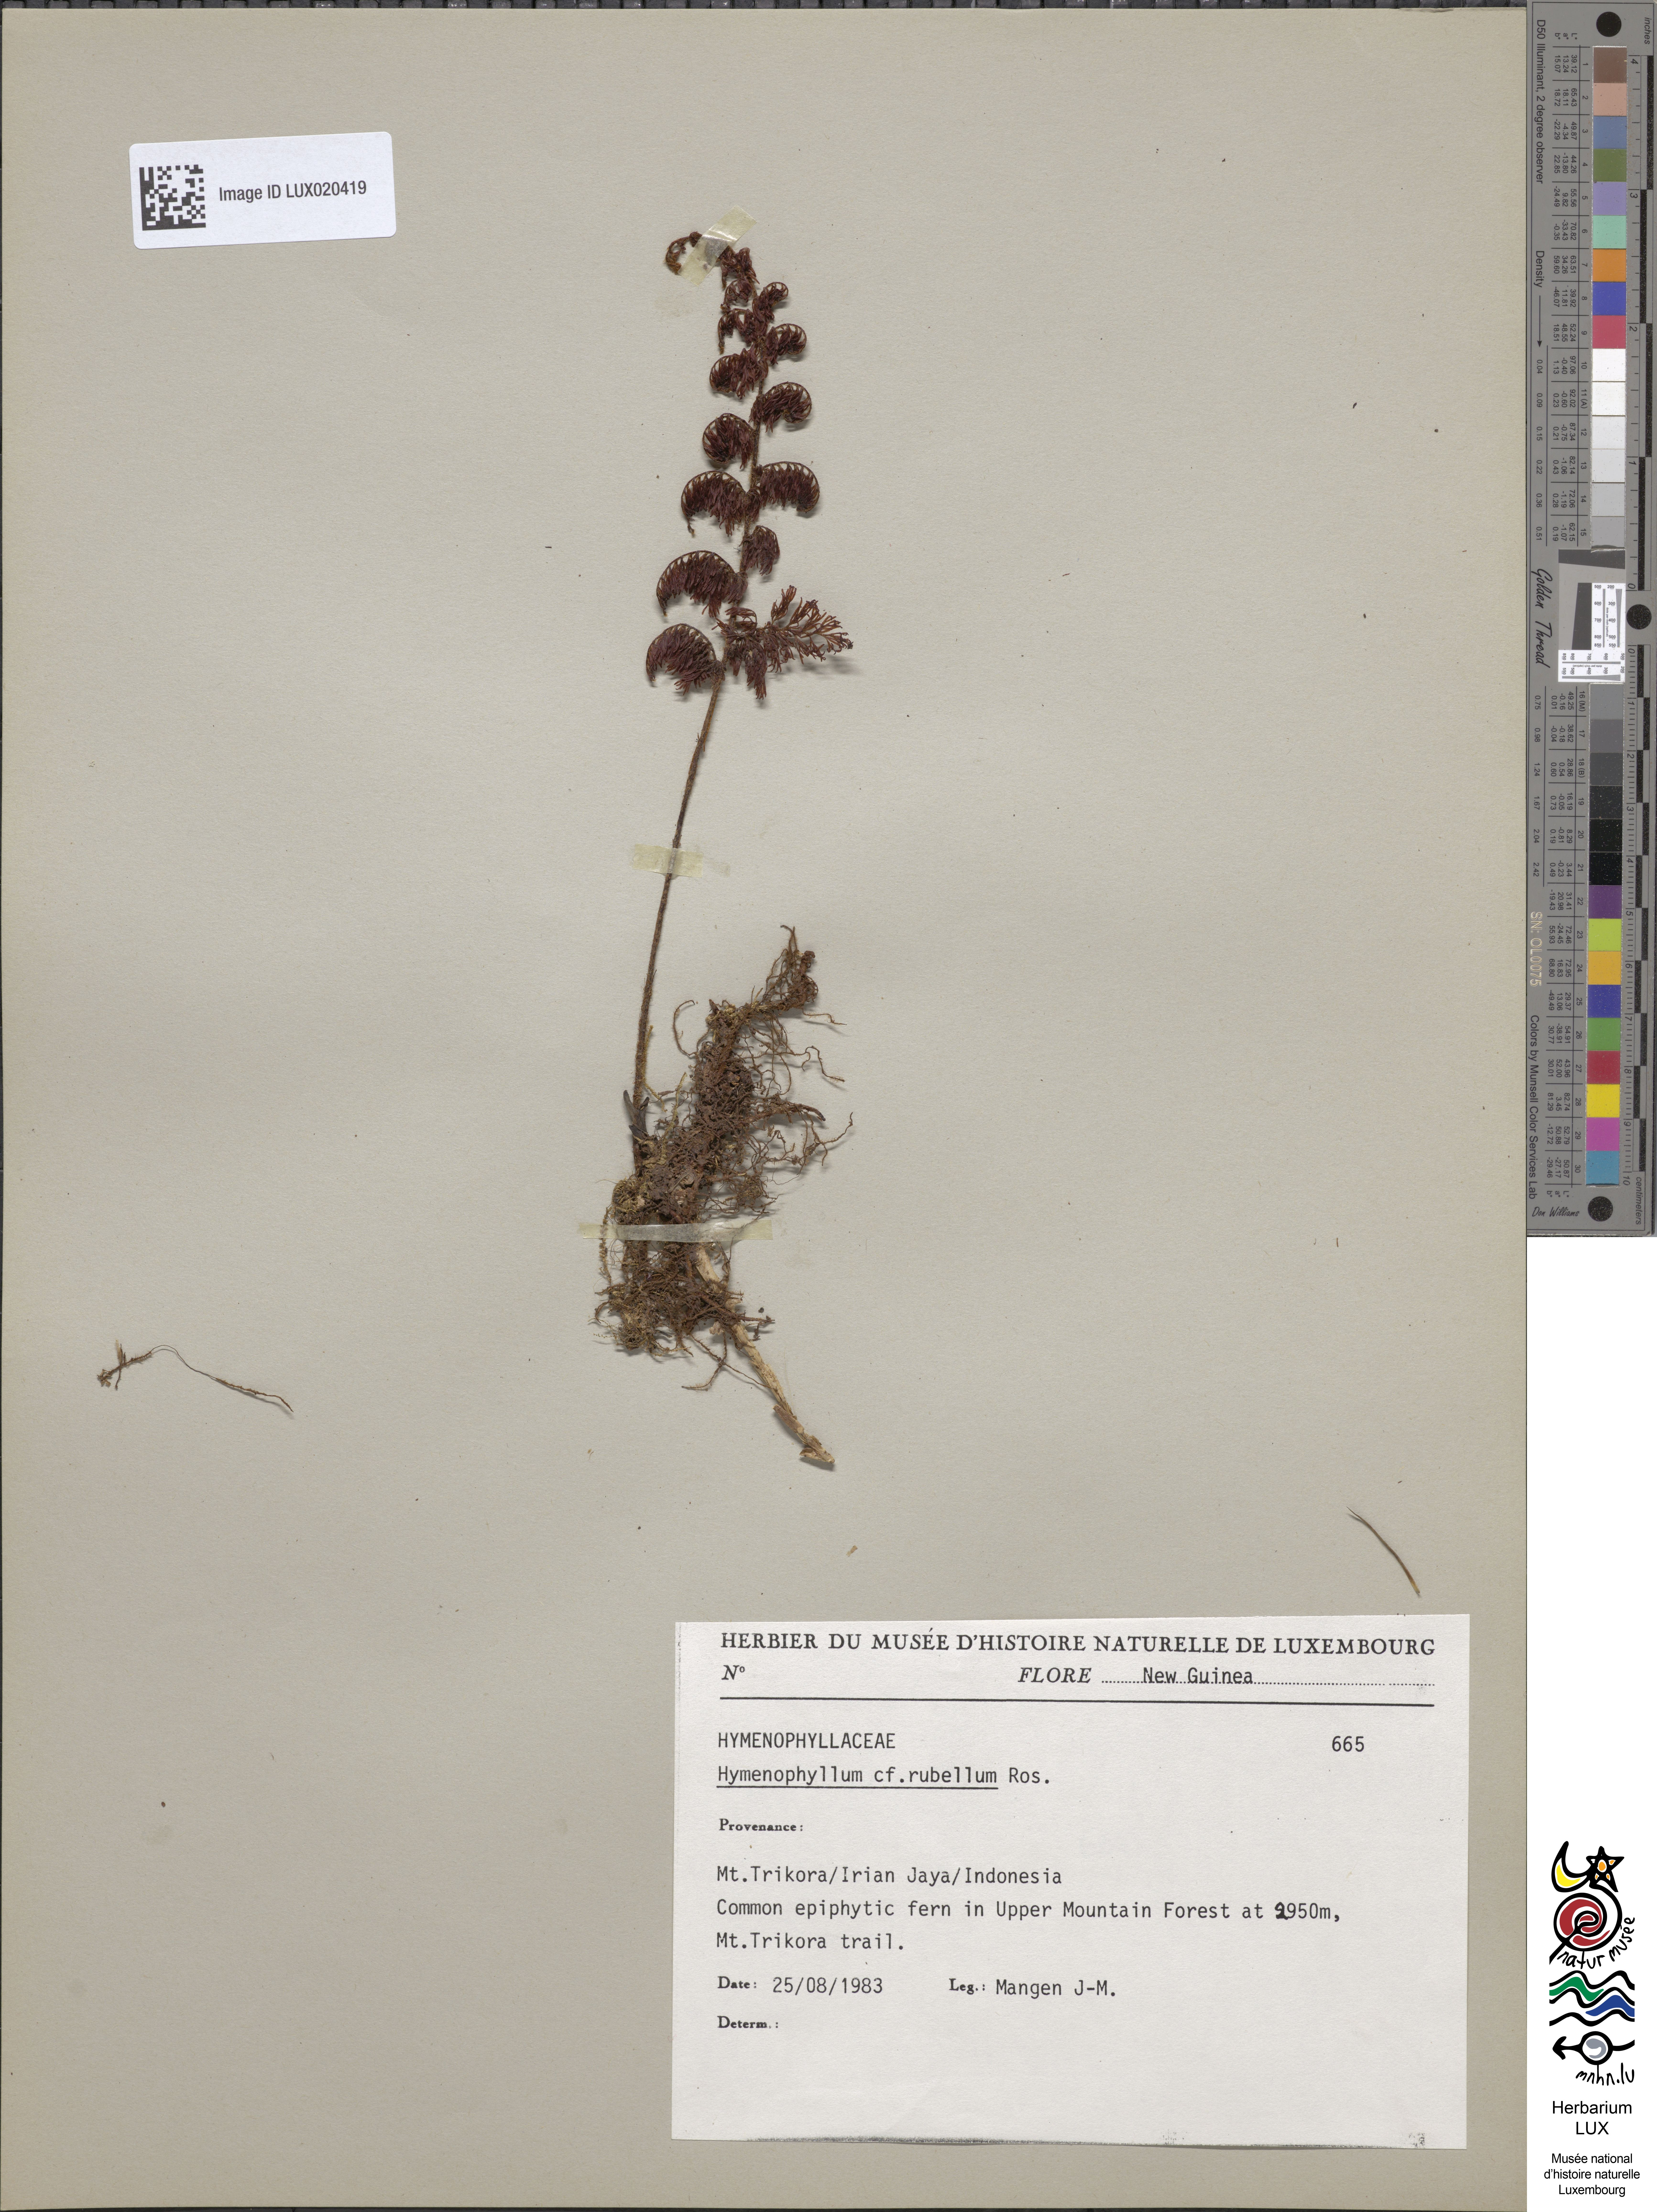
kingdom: Plantae
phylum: Tracheophyta
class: Polypodiopsida
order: Hymenophyllales
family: Hymenophyllaceae
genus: Hymenophyllum
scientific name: Hymenophyllum rubellum
